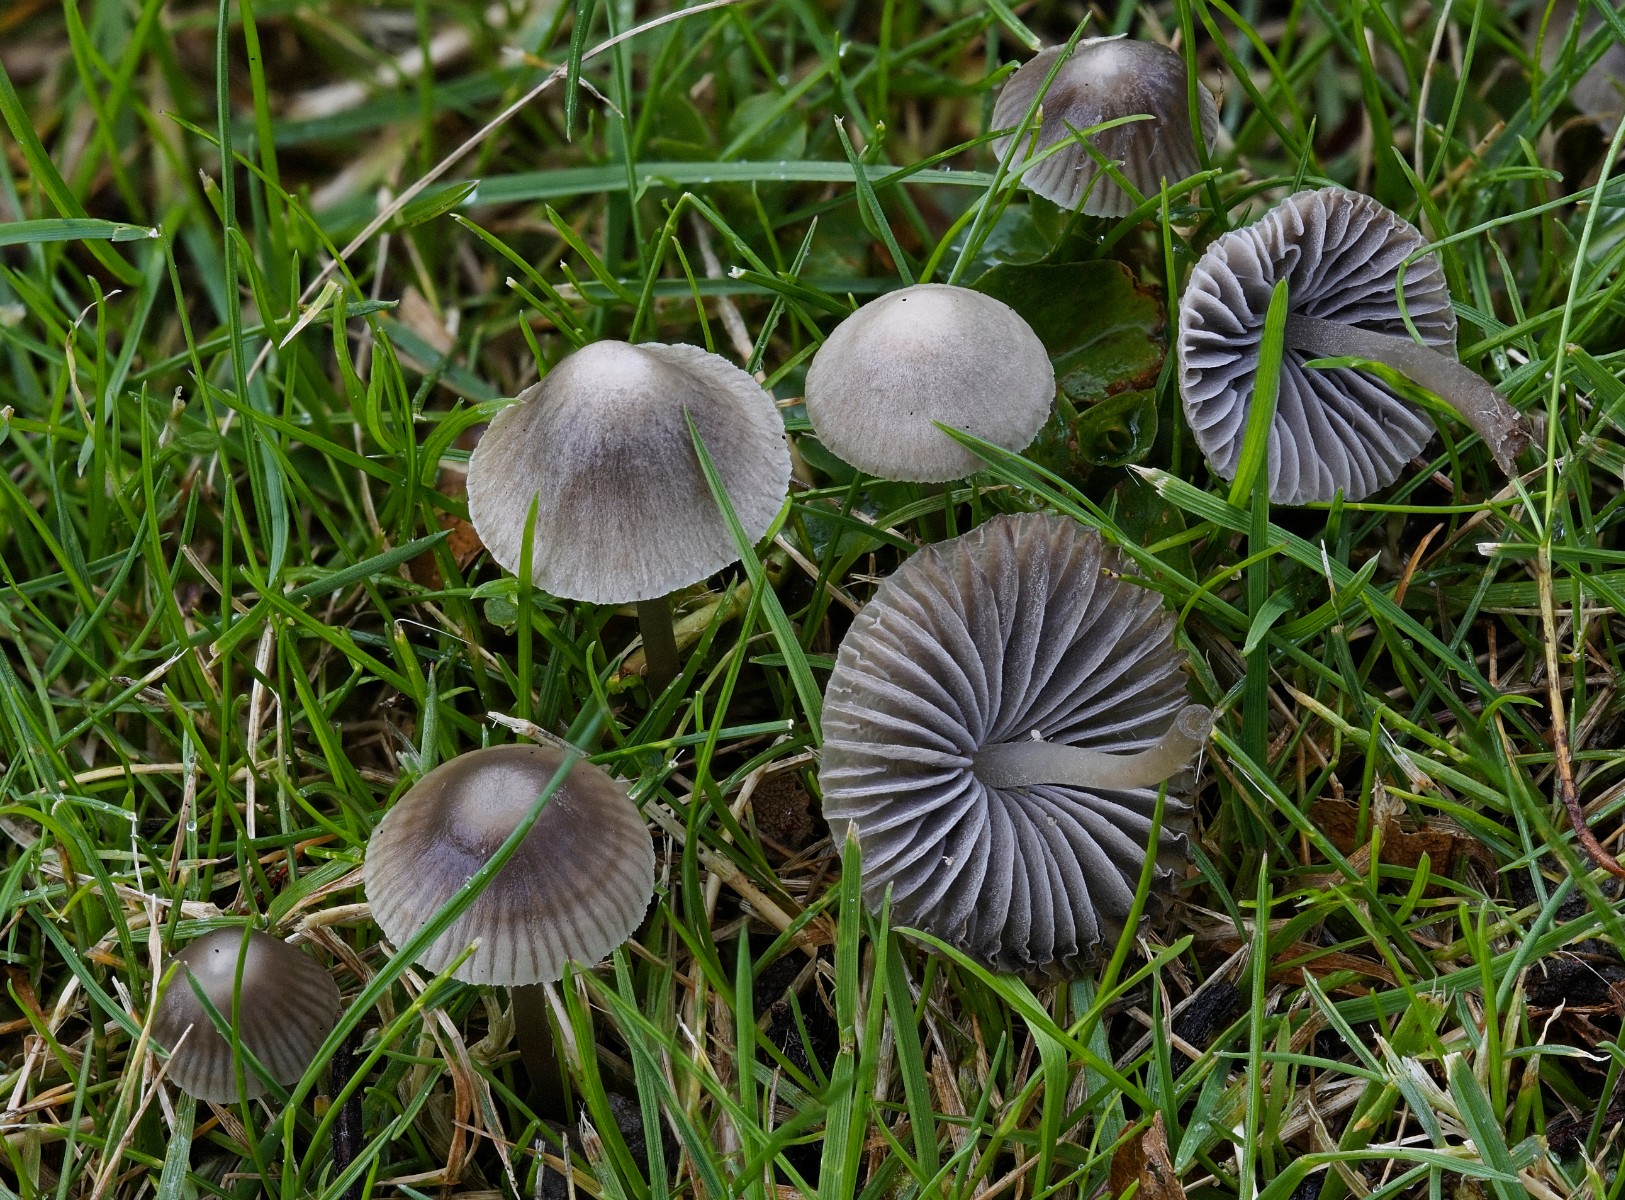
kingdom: Fungi
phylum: Basidiomycota
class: Agaricomycetes
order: Agaricales
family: Mycenaceae
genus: Mycena
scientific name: Mycena aetites
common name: plæne-huesvamp
